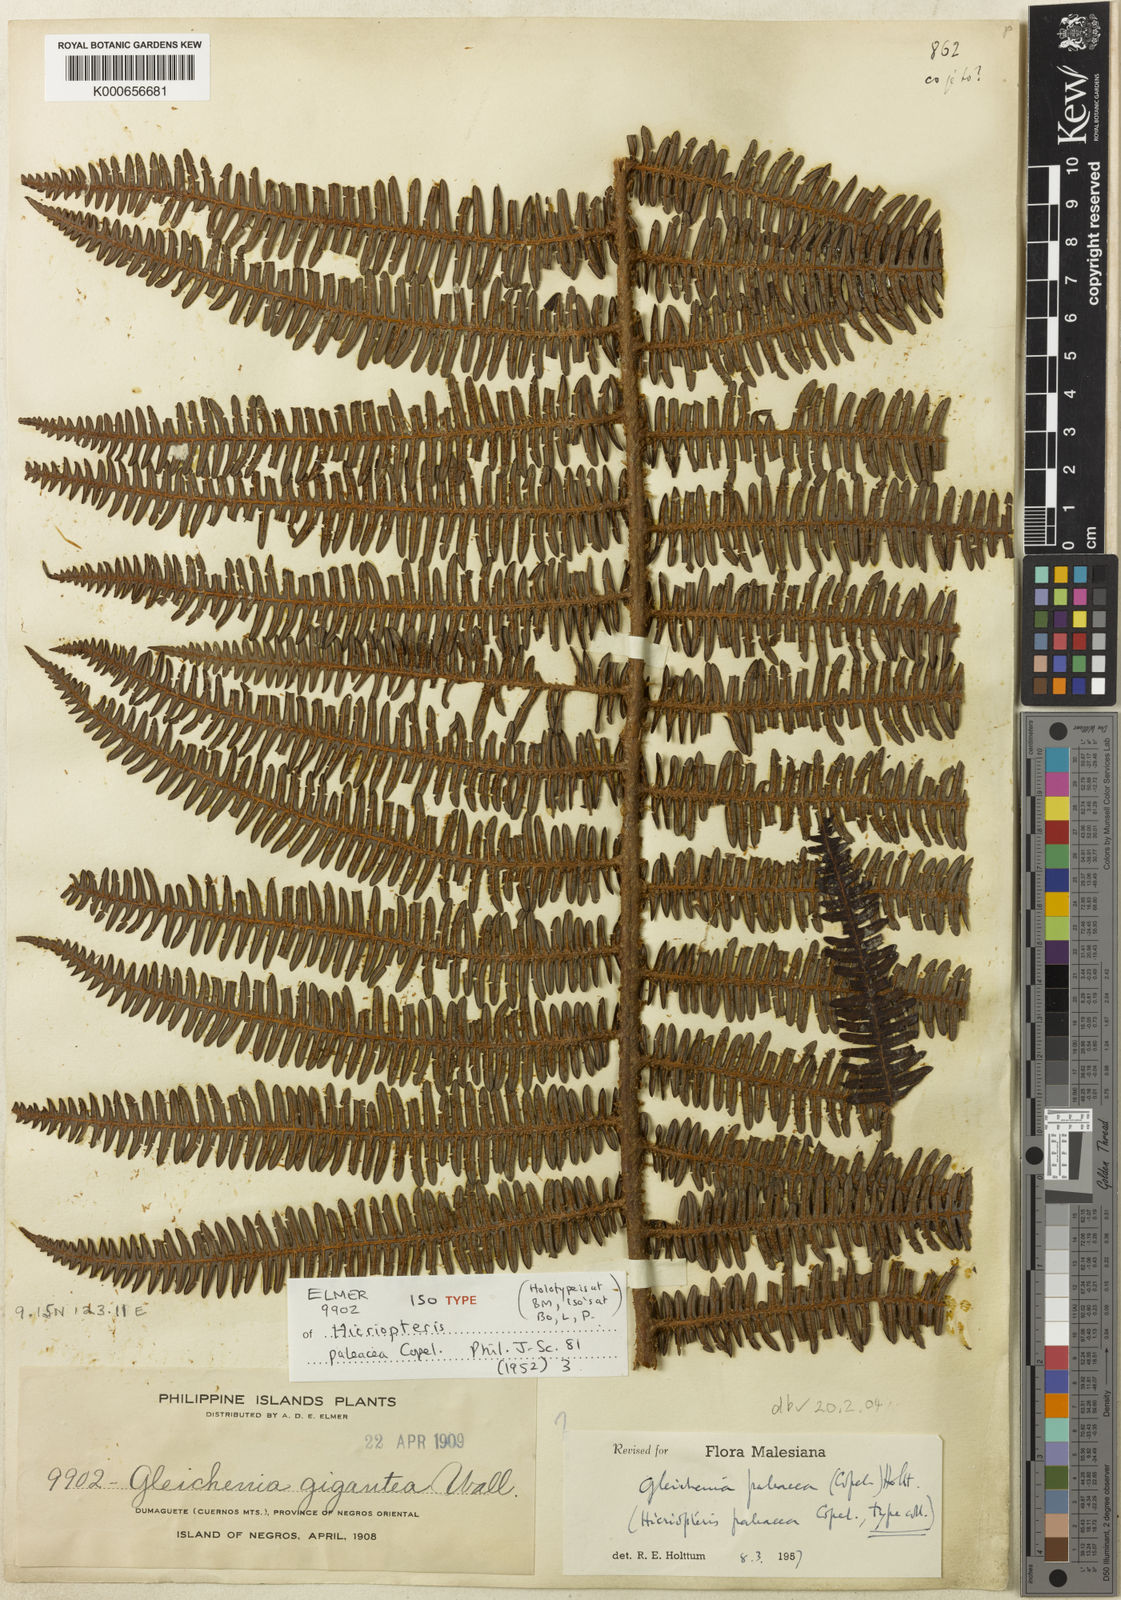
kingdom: Plantae
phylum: Tracheophyta
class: Polypodiopsida
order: Gleicheniales
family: Gleicheniaceae
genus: Diplopterygium
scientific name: Diplopterygium
